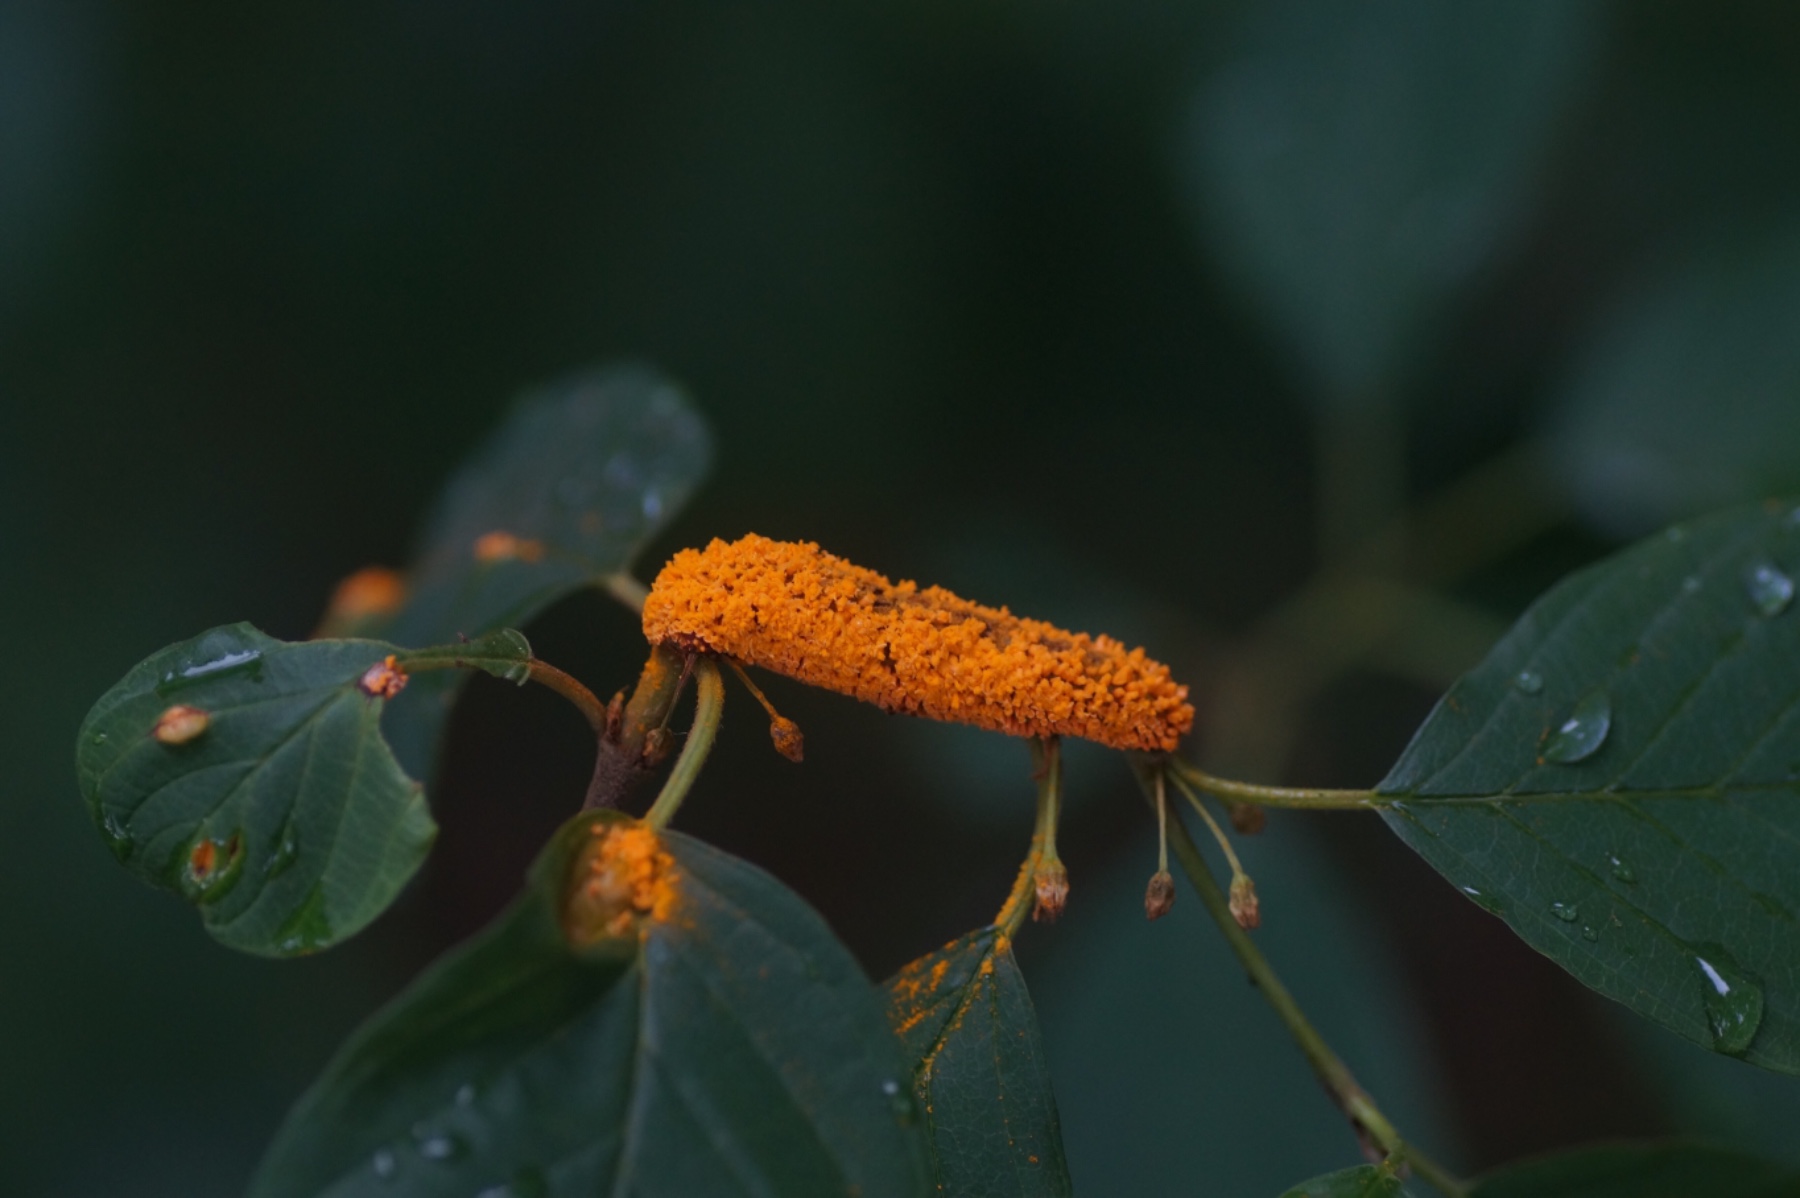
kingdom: Fungi
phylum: Basidiomycota
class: Pucciniomycetes
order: Pucciniales
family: Pucciniaceae
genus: Puccinia
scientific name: Puccinia coronata
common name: Crown rust
